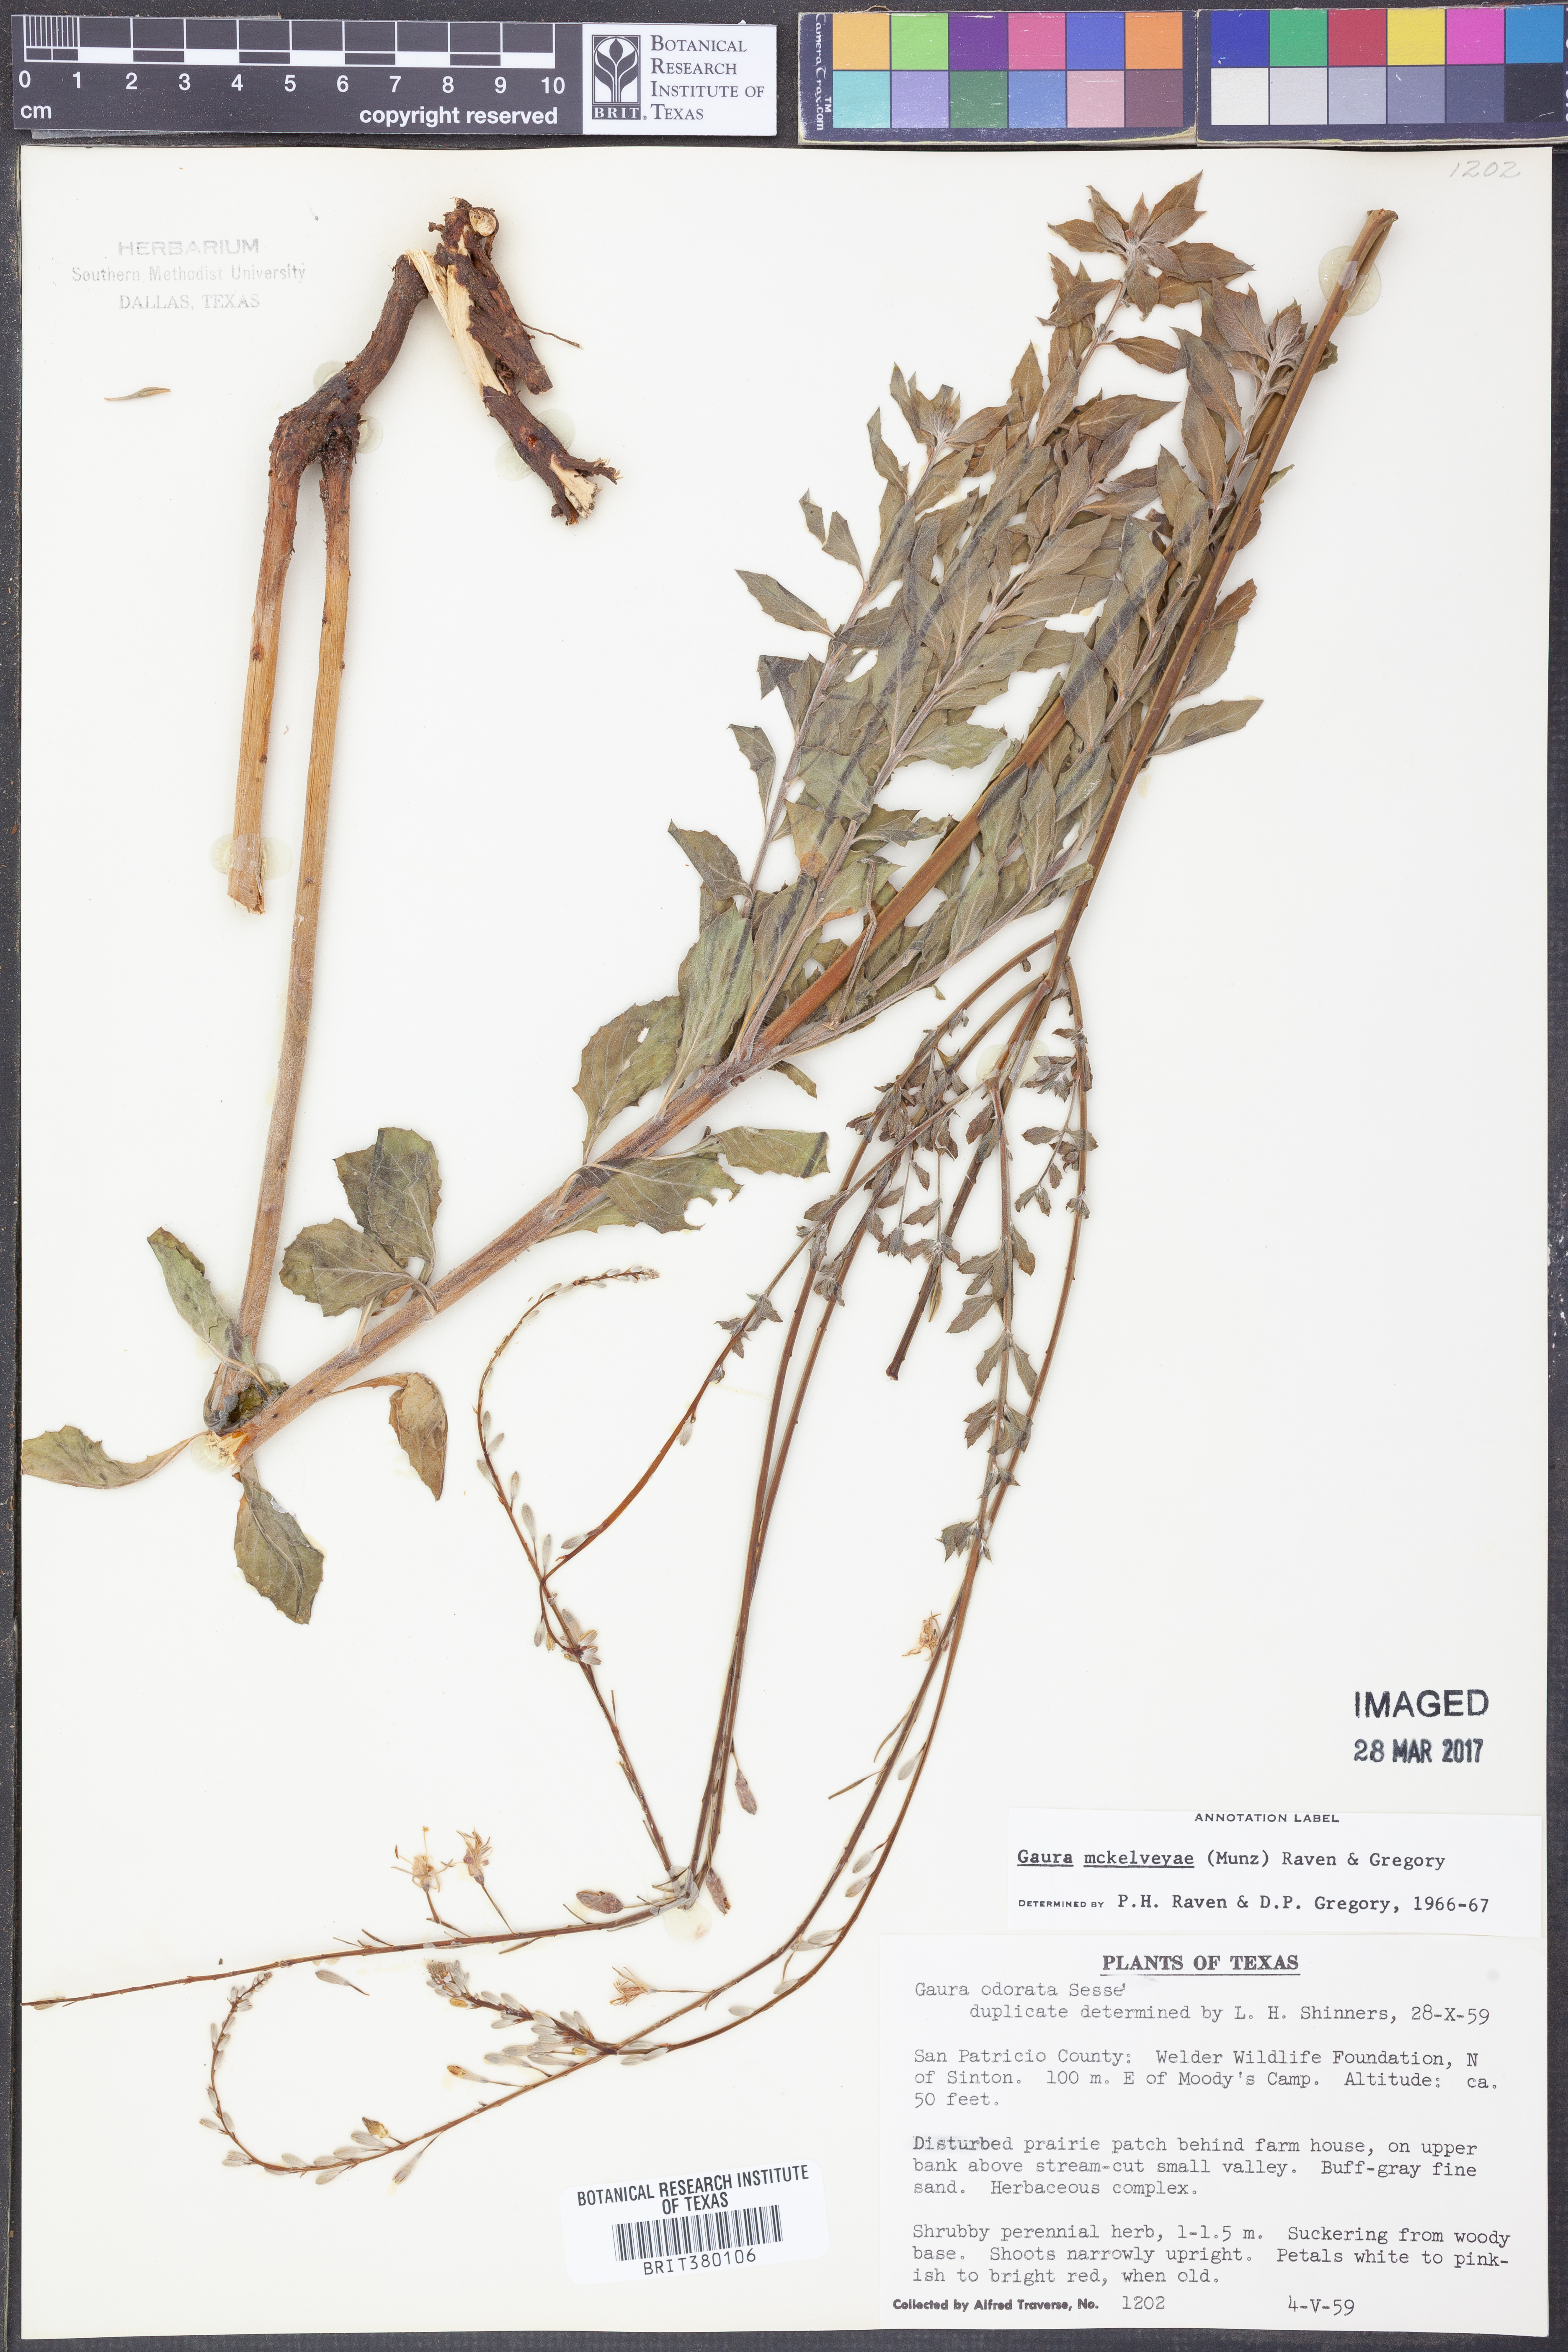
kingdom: Plantae
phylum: Tracheophyta
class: Magnoliopsida
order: Myrtales
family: Onagraceae
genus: Oenothera
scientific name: Oenothera mckelveyae
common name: Mckelvey's beeblossom
